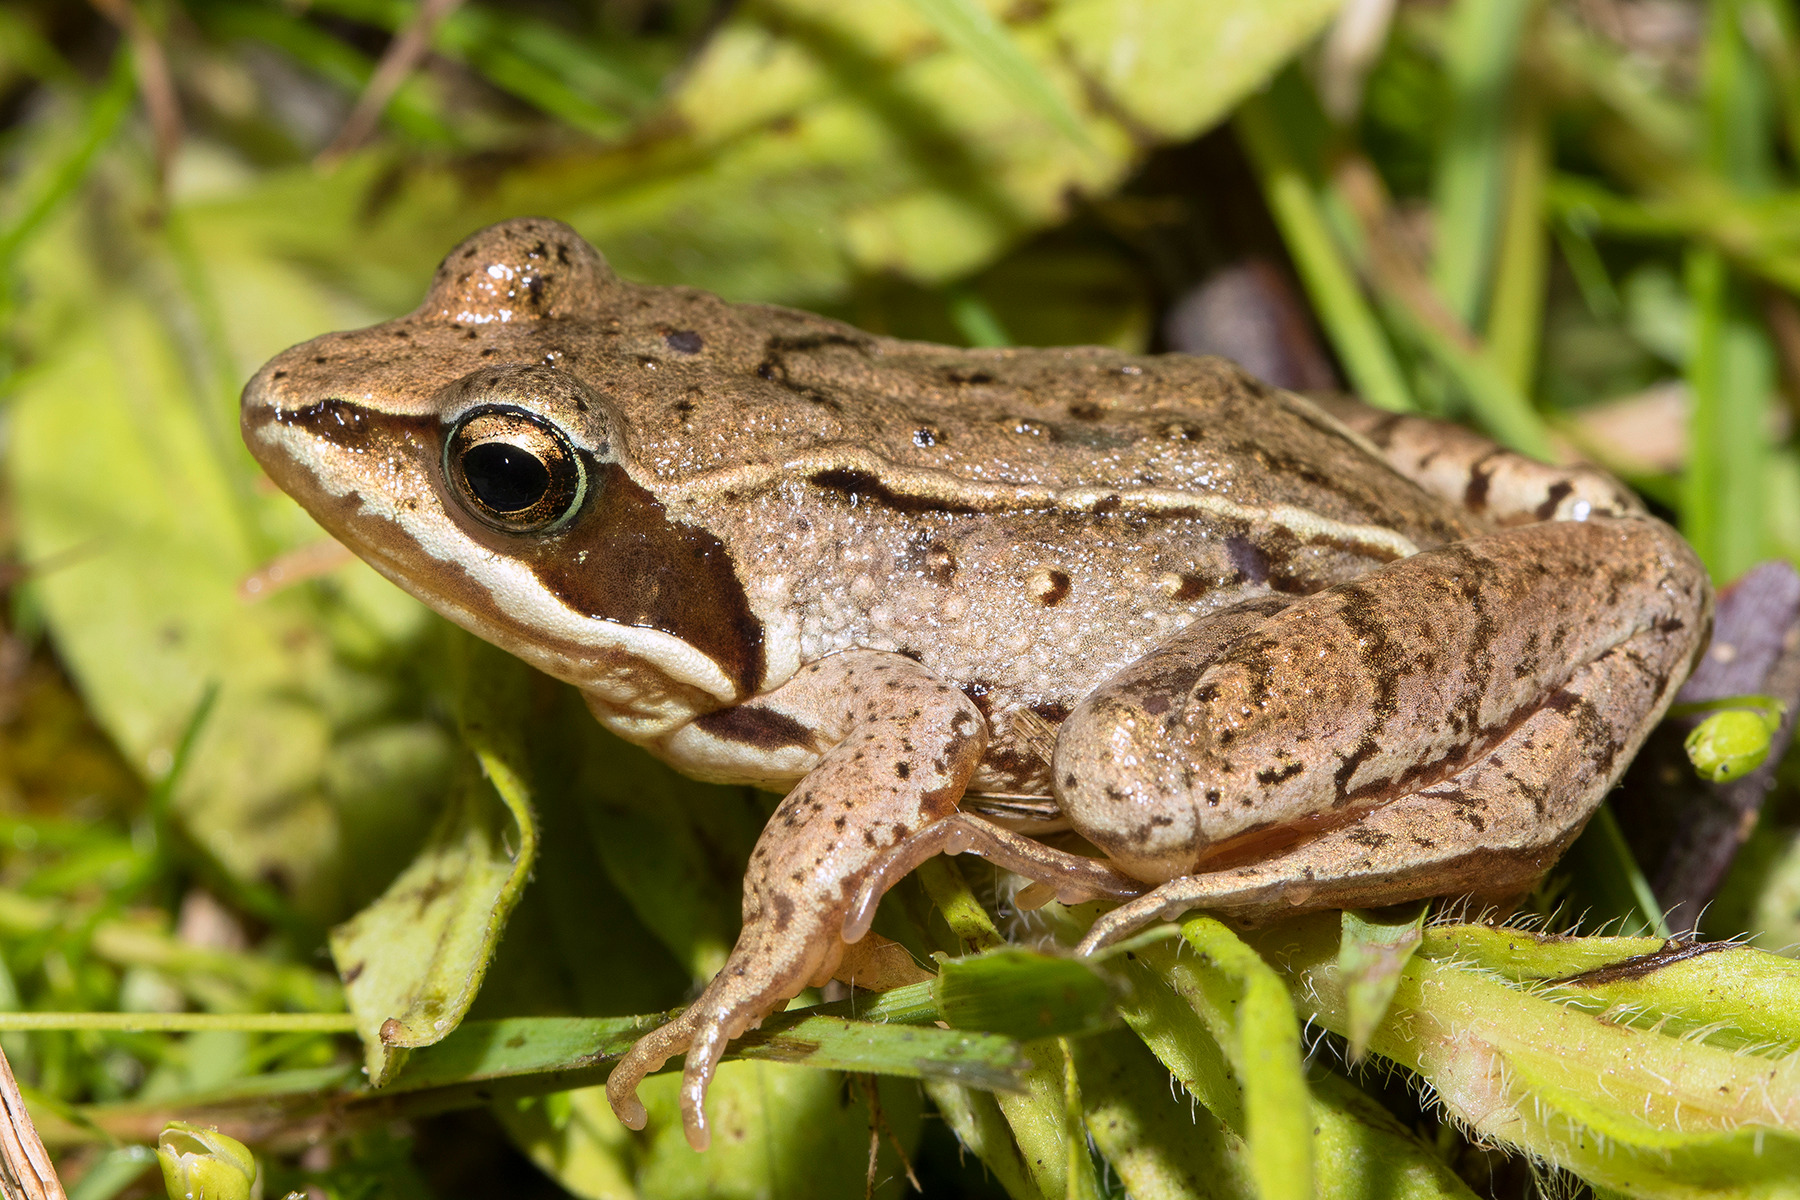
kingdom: Animalia
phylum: Chordata
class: Amphibia
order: Anura
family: Ranidae
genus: Rana
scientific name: Rana arvalis
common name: Spidssnudet frø
